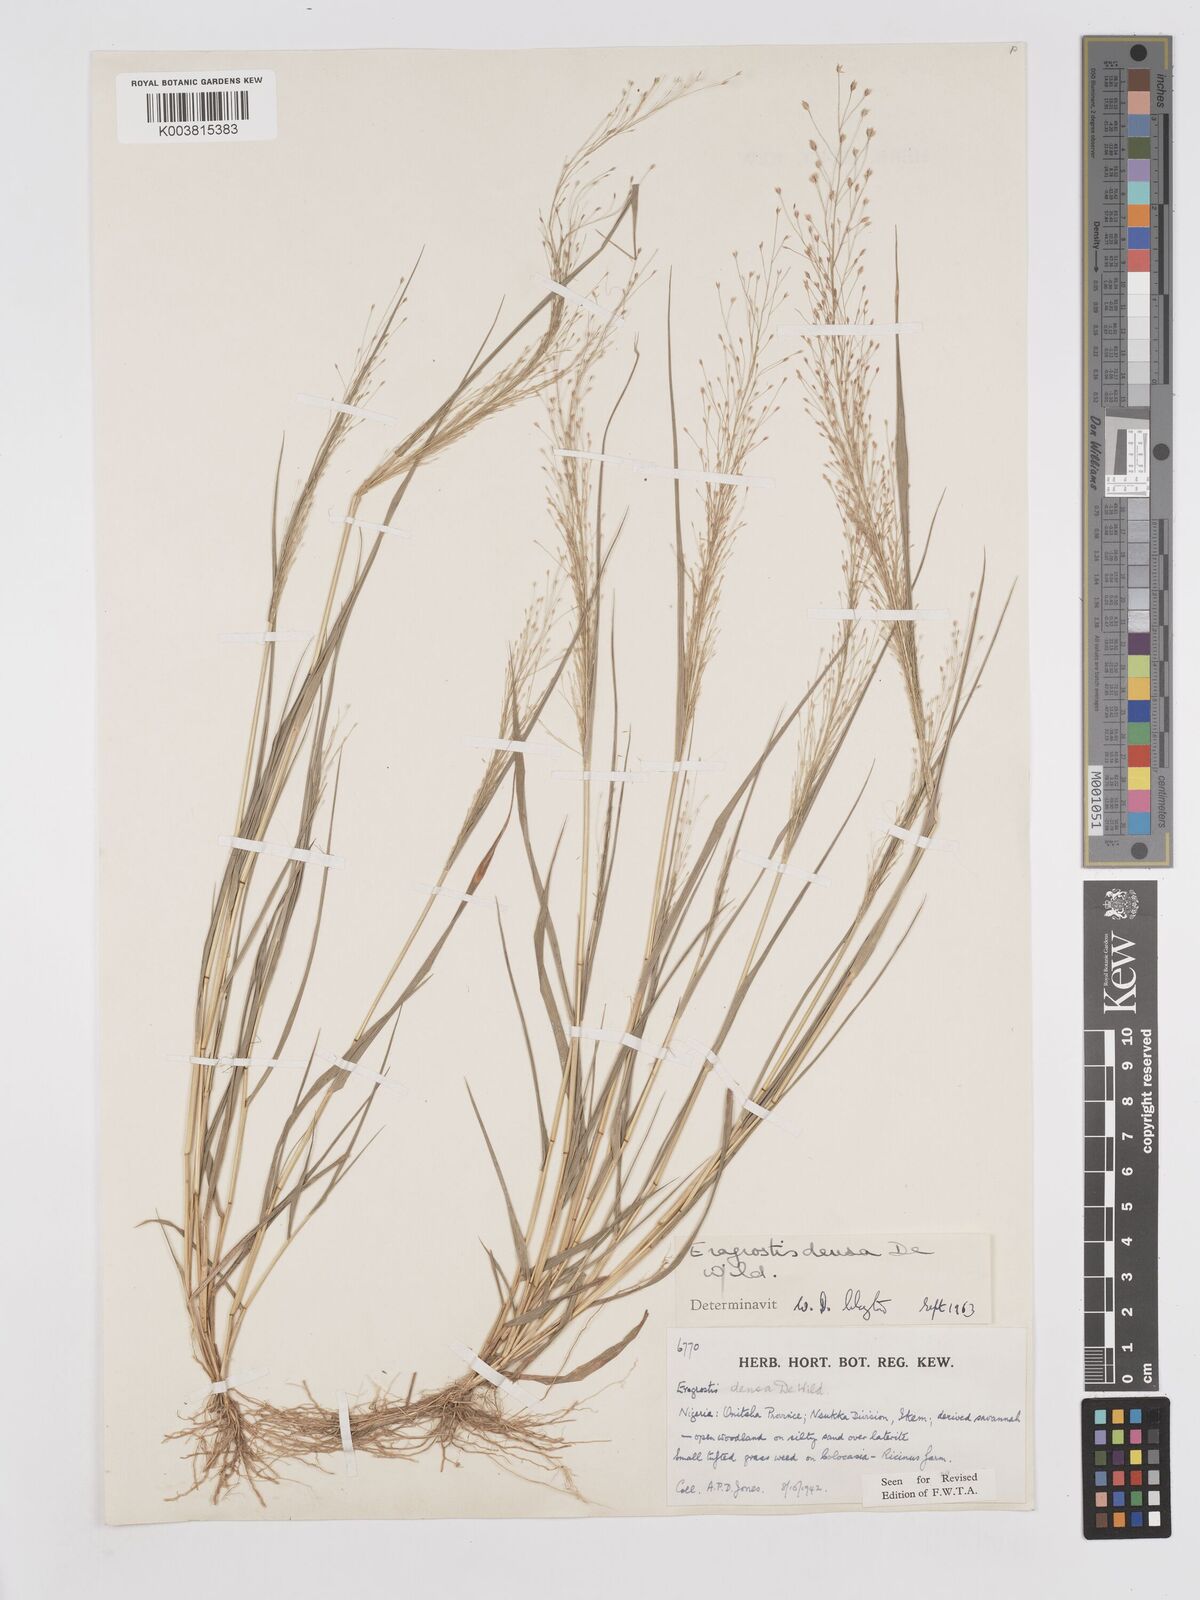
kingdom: Plantae
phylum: Tracheophyta
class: Liliopsida
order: Poales
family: Poaceae
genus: Eragrostis
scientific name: Eragrostis welwitschii
